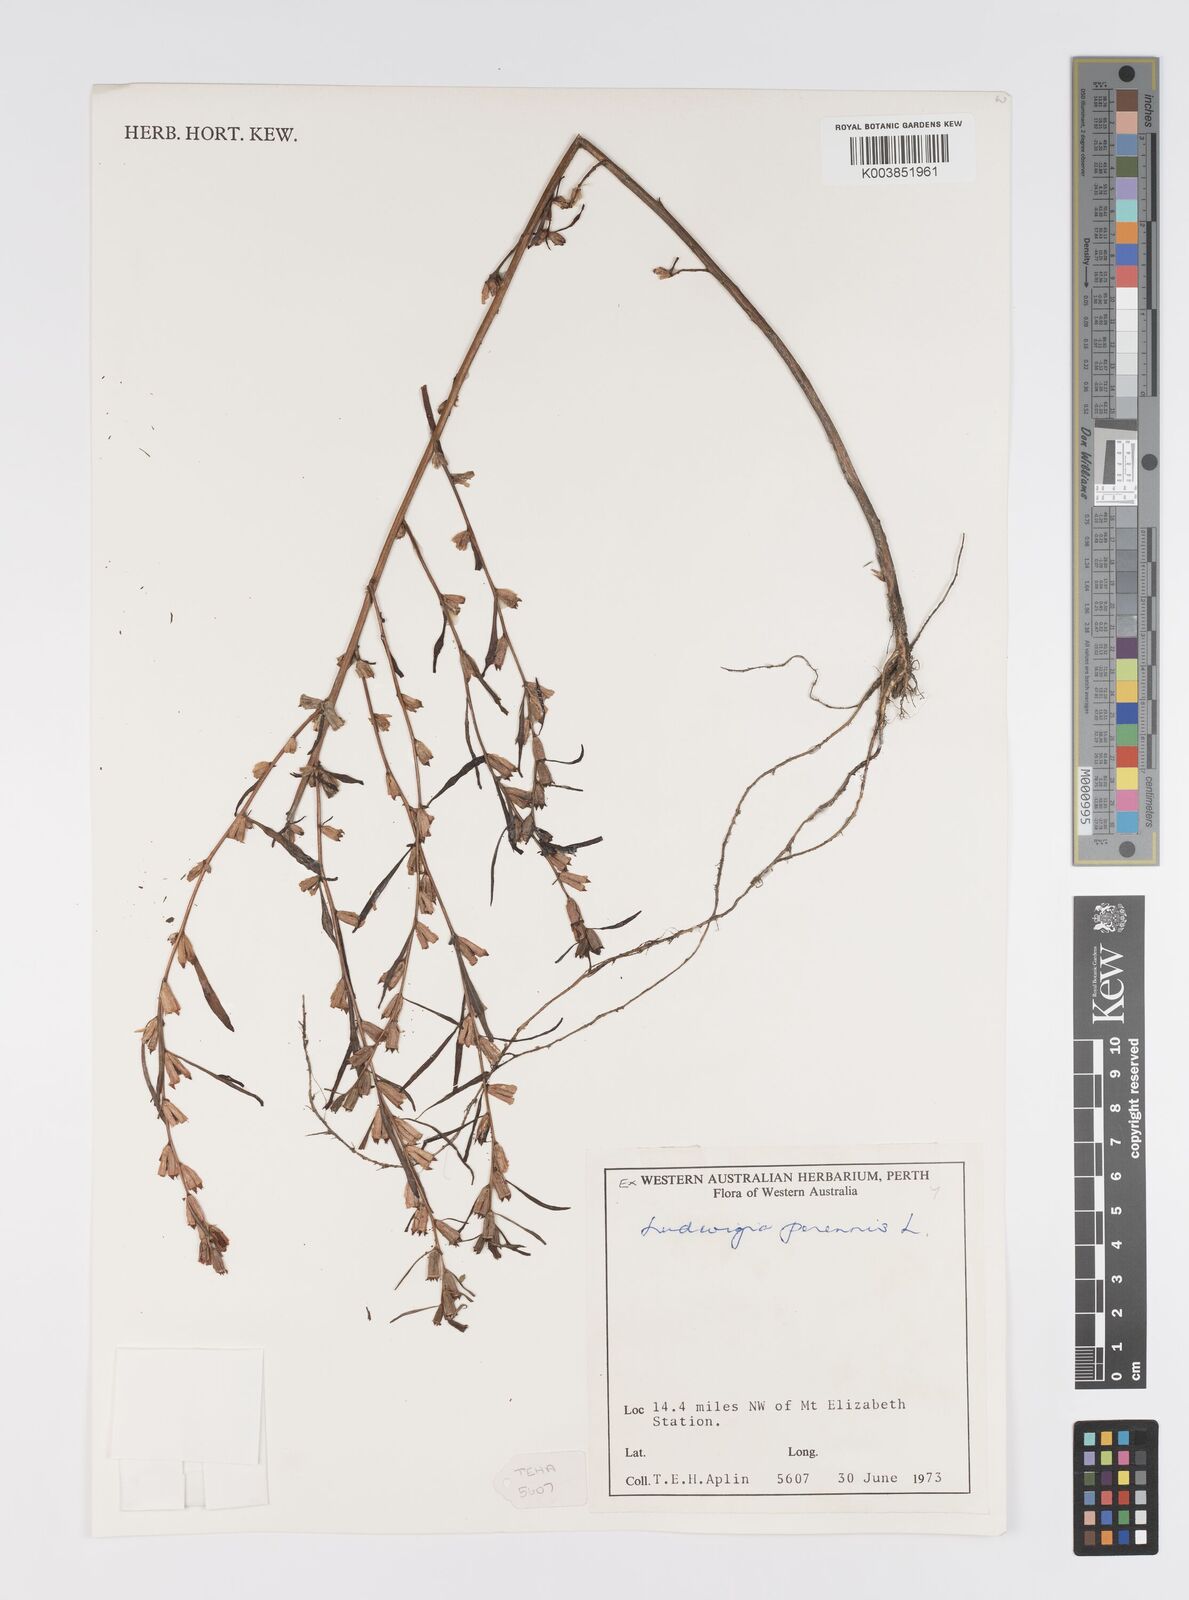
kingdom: Plantae
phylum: Tracheophyta
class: Magnoliopsida
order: Myrtales
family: Onagraceae
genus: Ludwigia
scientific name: Ludwigia perennis
